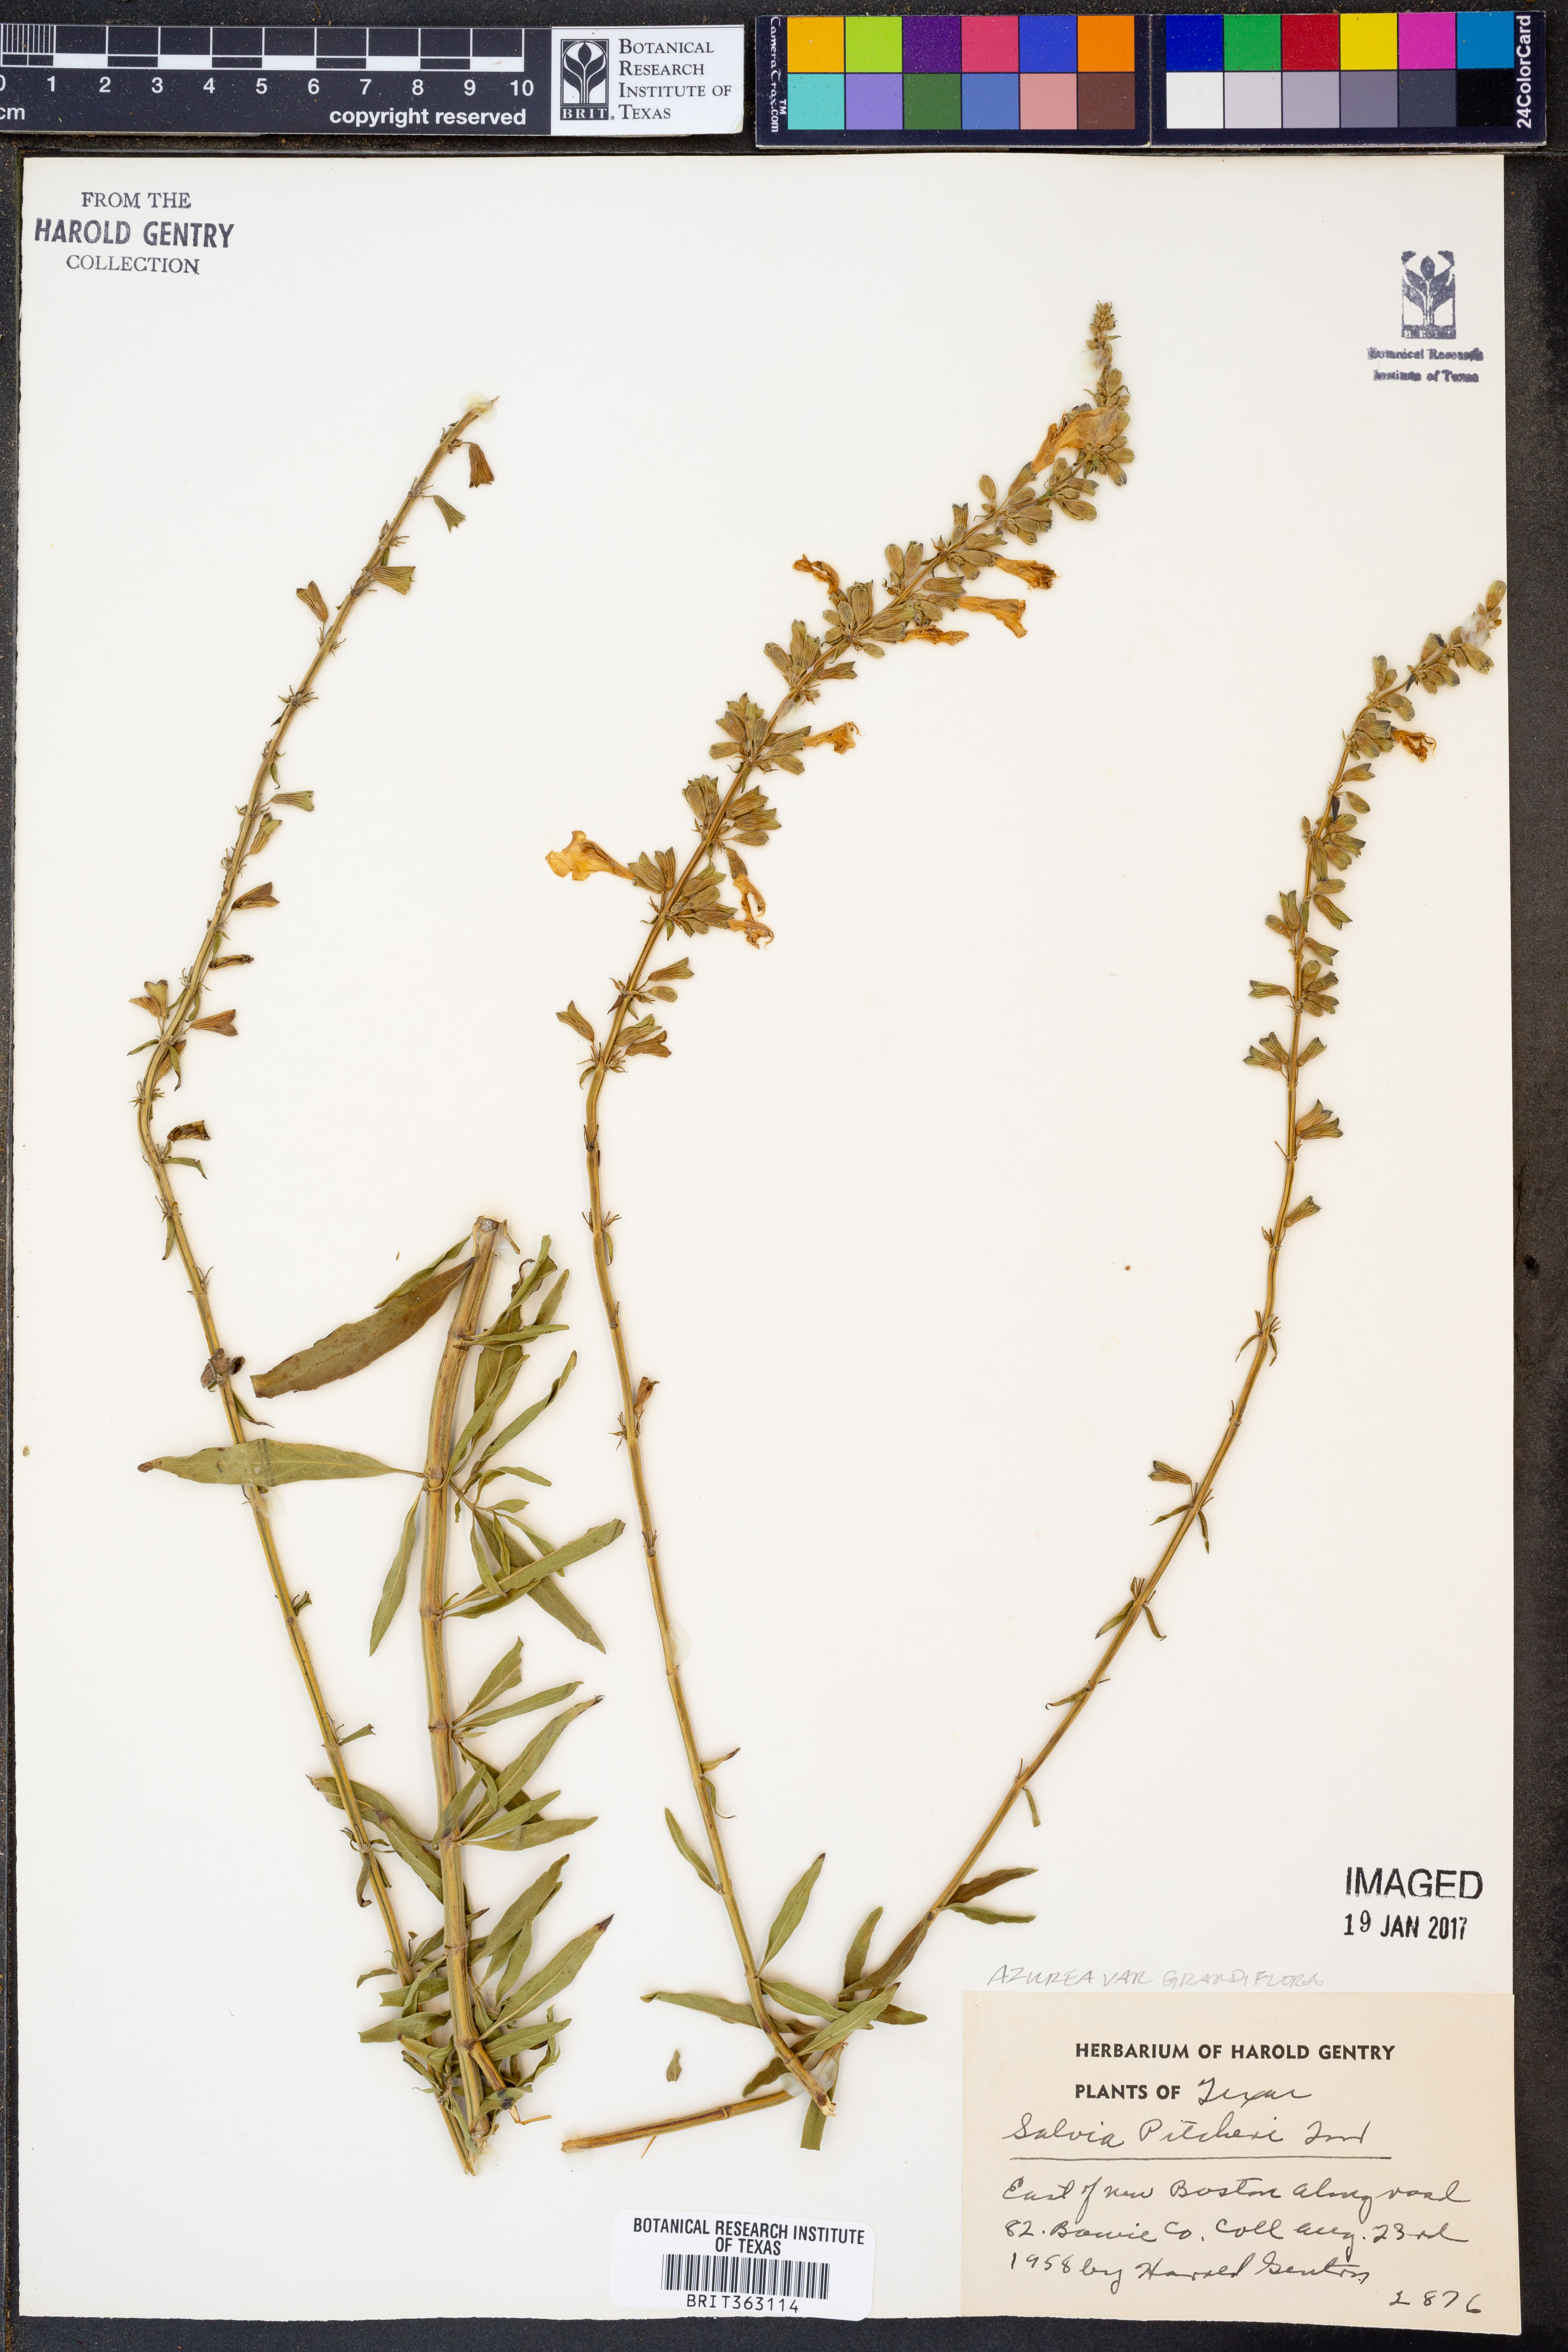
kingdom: Plantae
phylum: Tracheophyta
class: Magnoliopsida
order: Lamiales
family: Lamiaceae
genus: Salvia
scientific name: Salvia azurea
